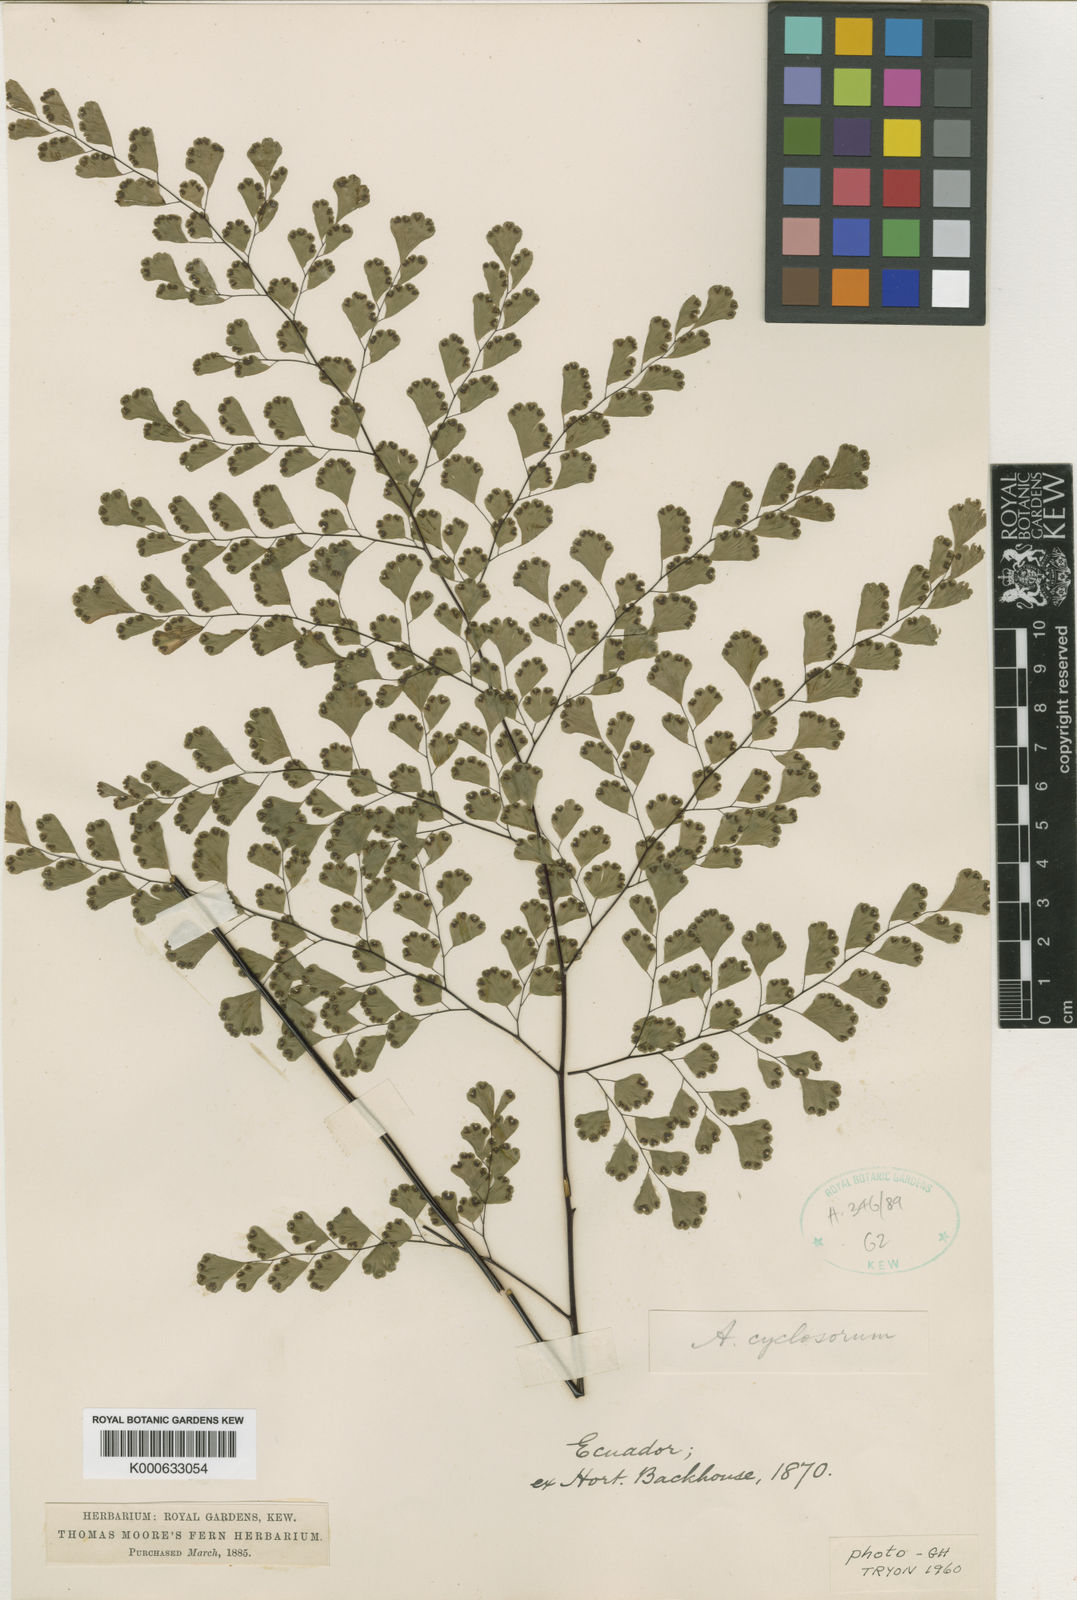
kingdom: Plantae
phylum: Tracheophyta
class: Polypodiopsida
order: Polypodiales
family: Pteridaceae
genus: Adiantum
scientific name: Adiantum raddianum
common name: Delta maidenhair fern
